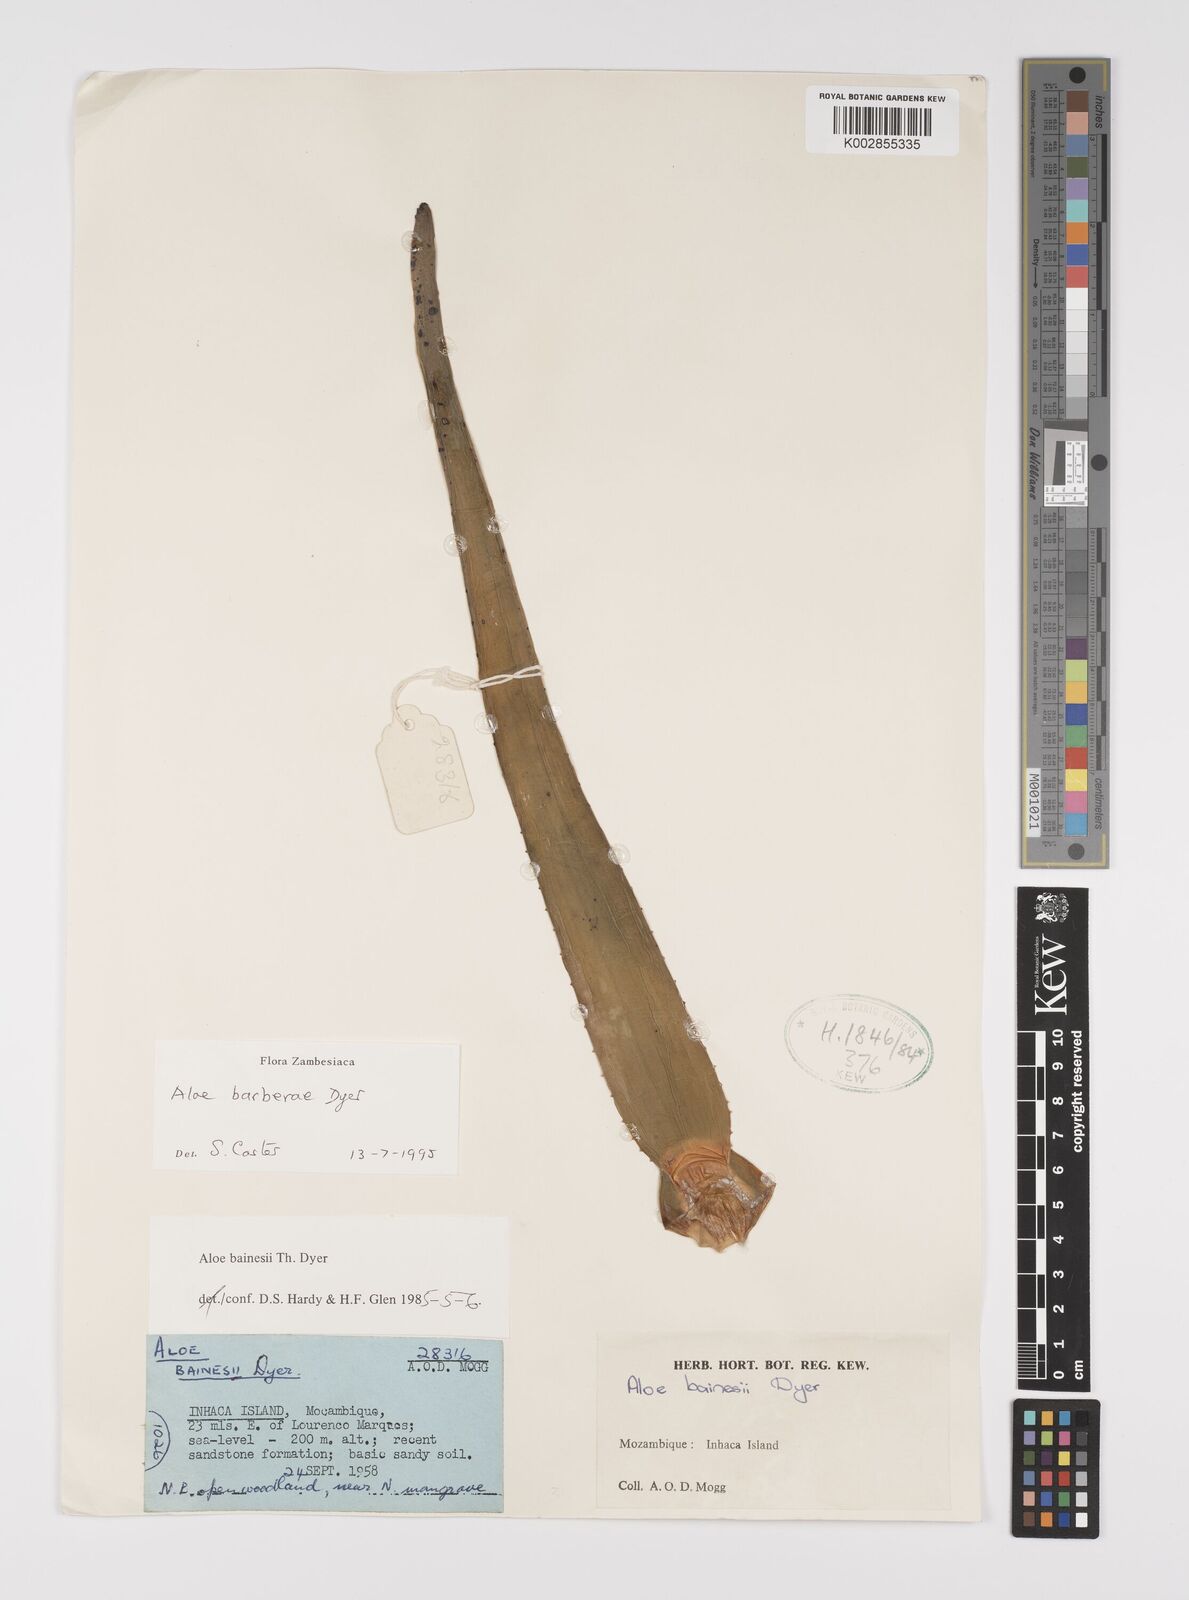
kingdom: Plantae
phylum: Tracheophyta
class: Liliopsida
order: Asparagales
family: Asphodelaceae
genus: Aloidendron
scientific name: Aloidendron barberae
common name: Tree aloe
